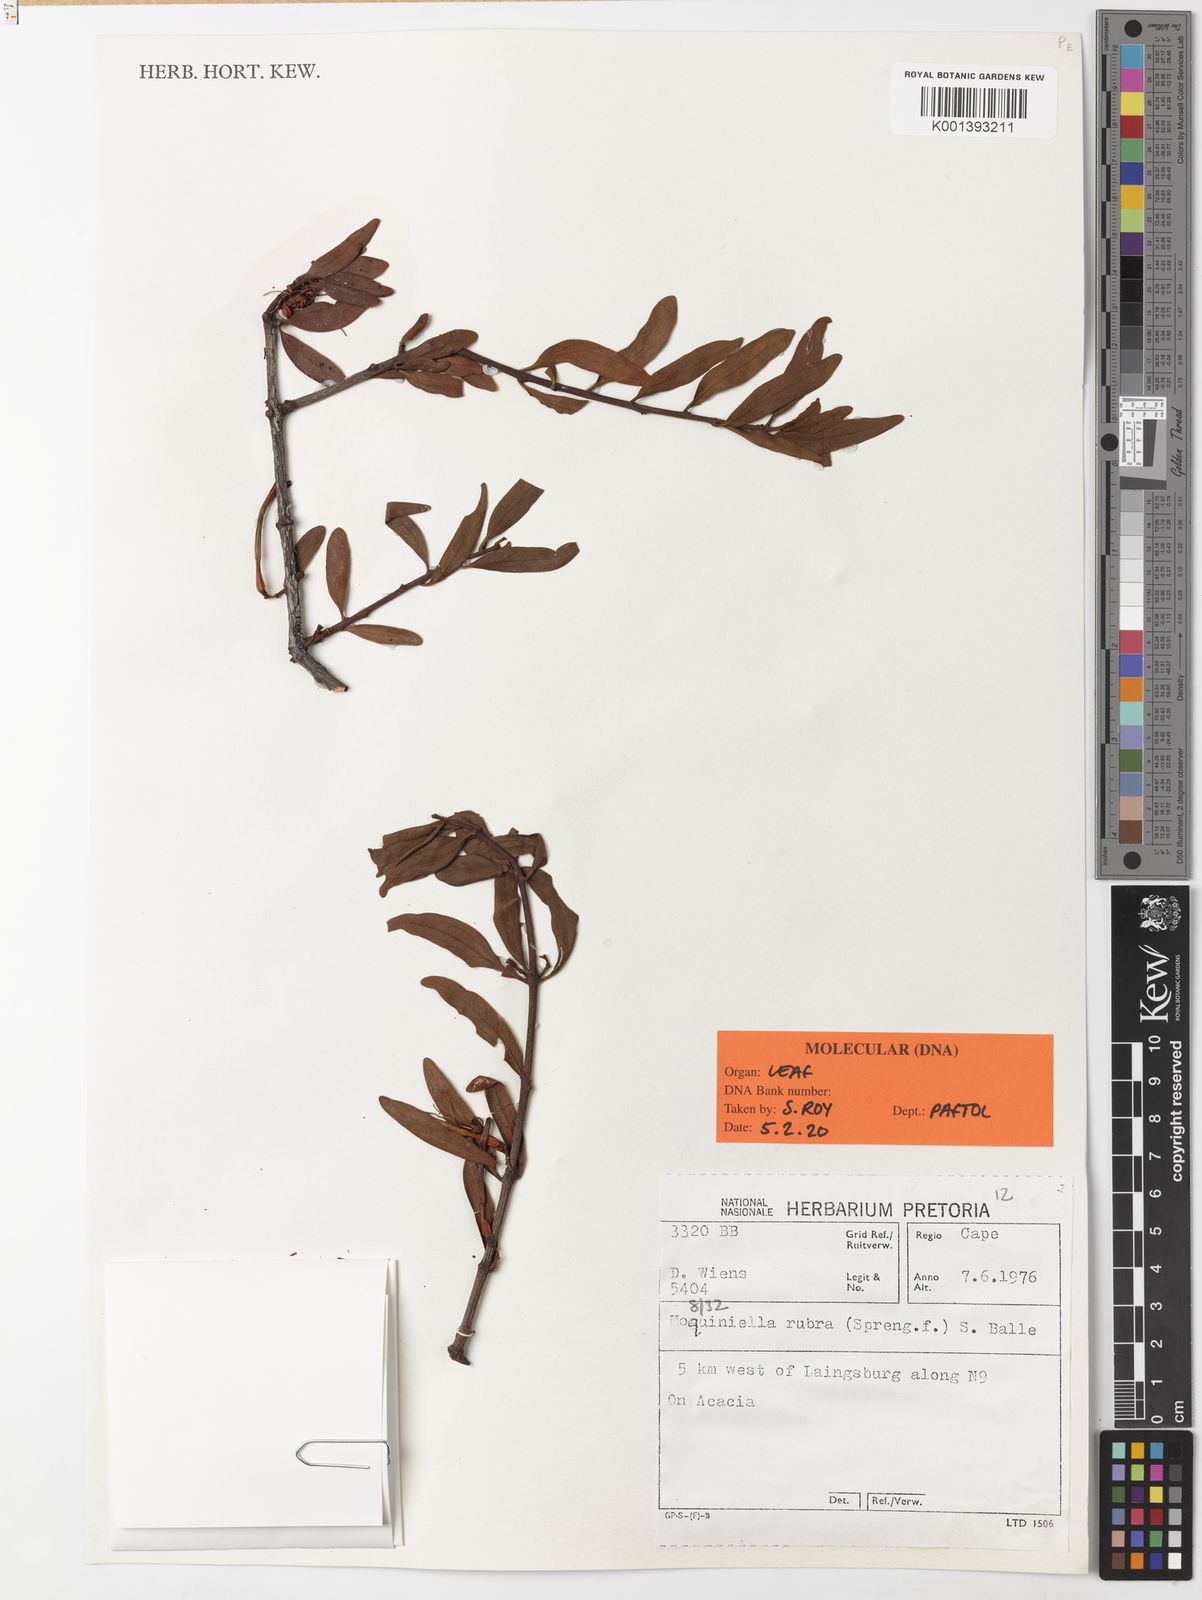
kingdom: Plantae
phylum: Tracheophyta
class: Magnoliopsida
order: Santalales
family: Loranthaceae
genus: Moquiniella
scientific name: Moquiniella rubra
